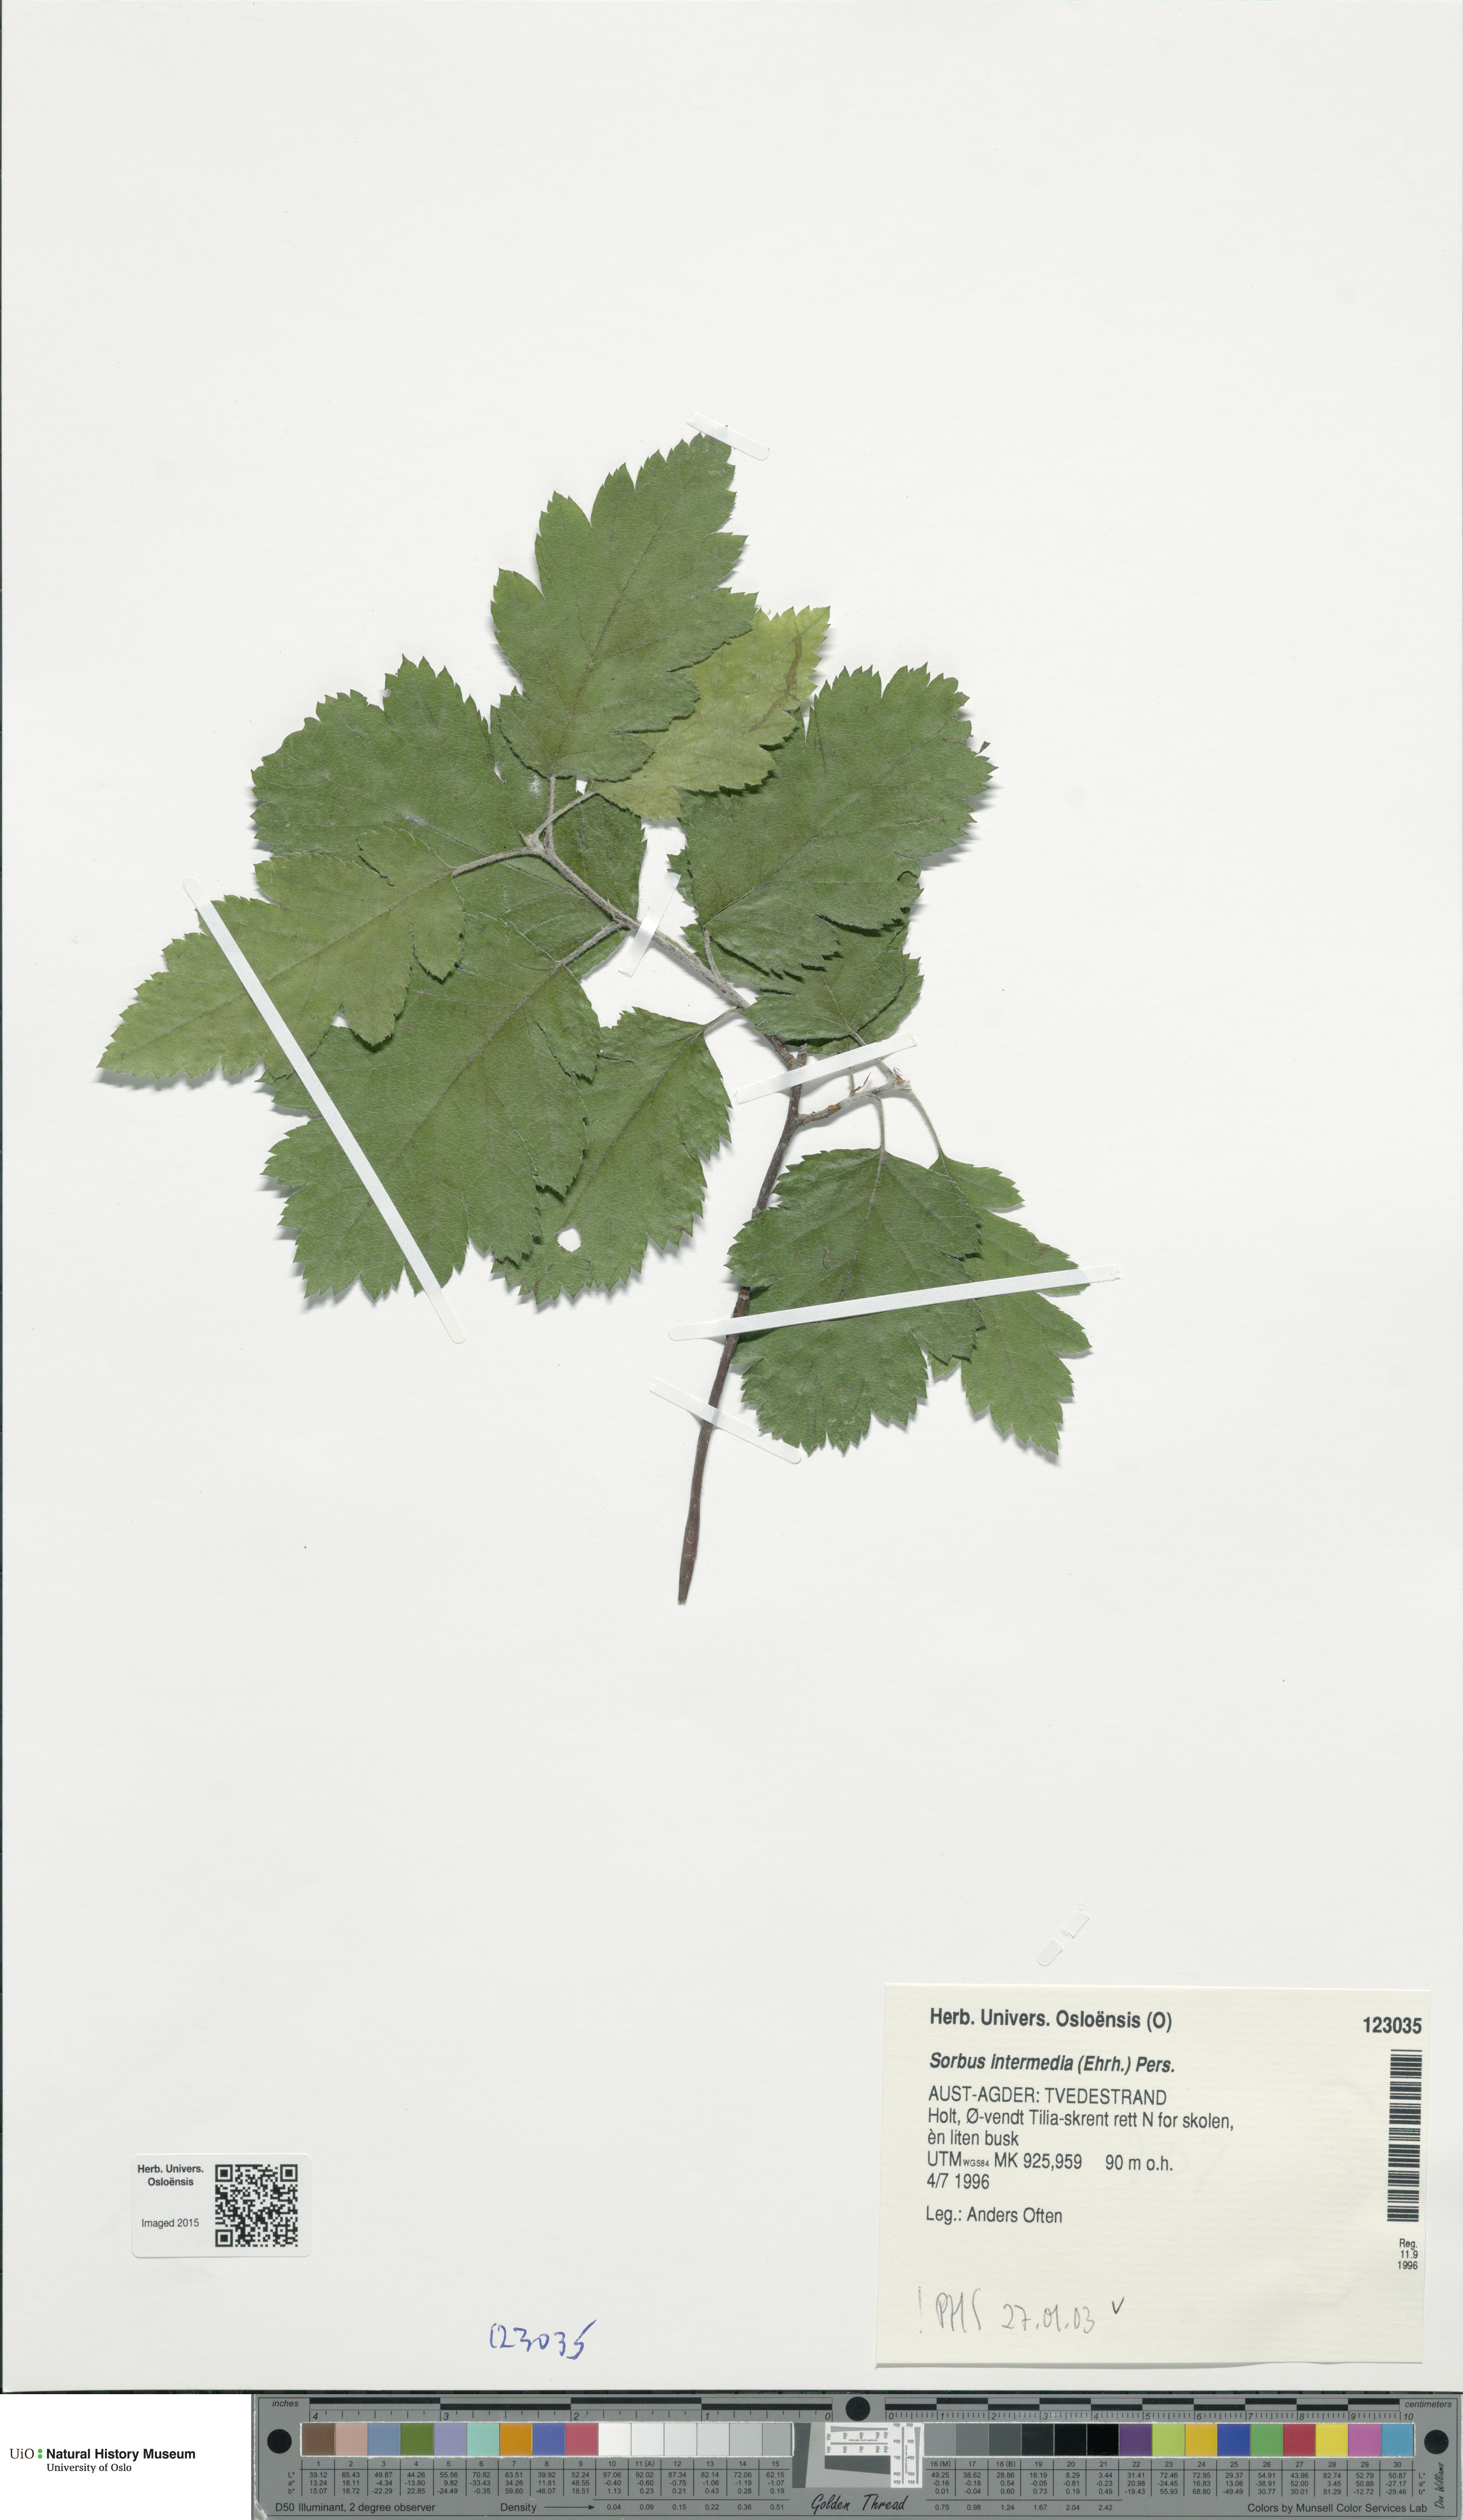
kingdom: Plantae
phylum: Tracheophyta
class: Magnoliopsida
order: Rosales
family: Rosaceae
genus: Scandosorbus
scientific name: Scandosorbus intermedia
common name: Swedish whitebeam
